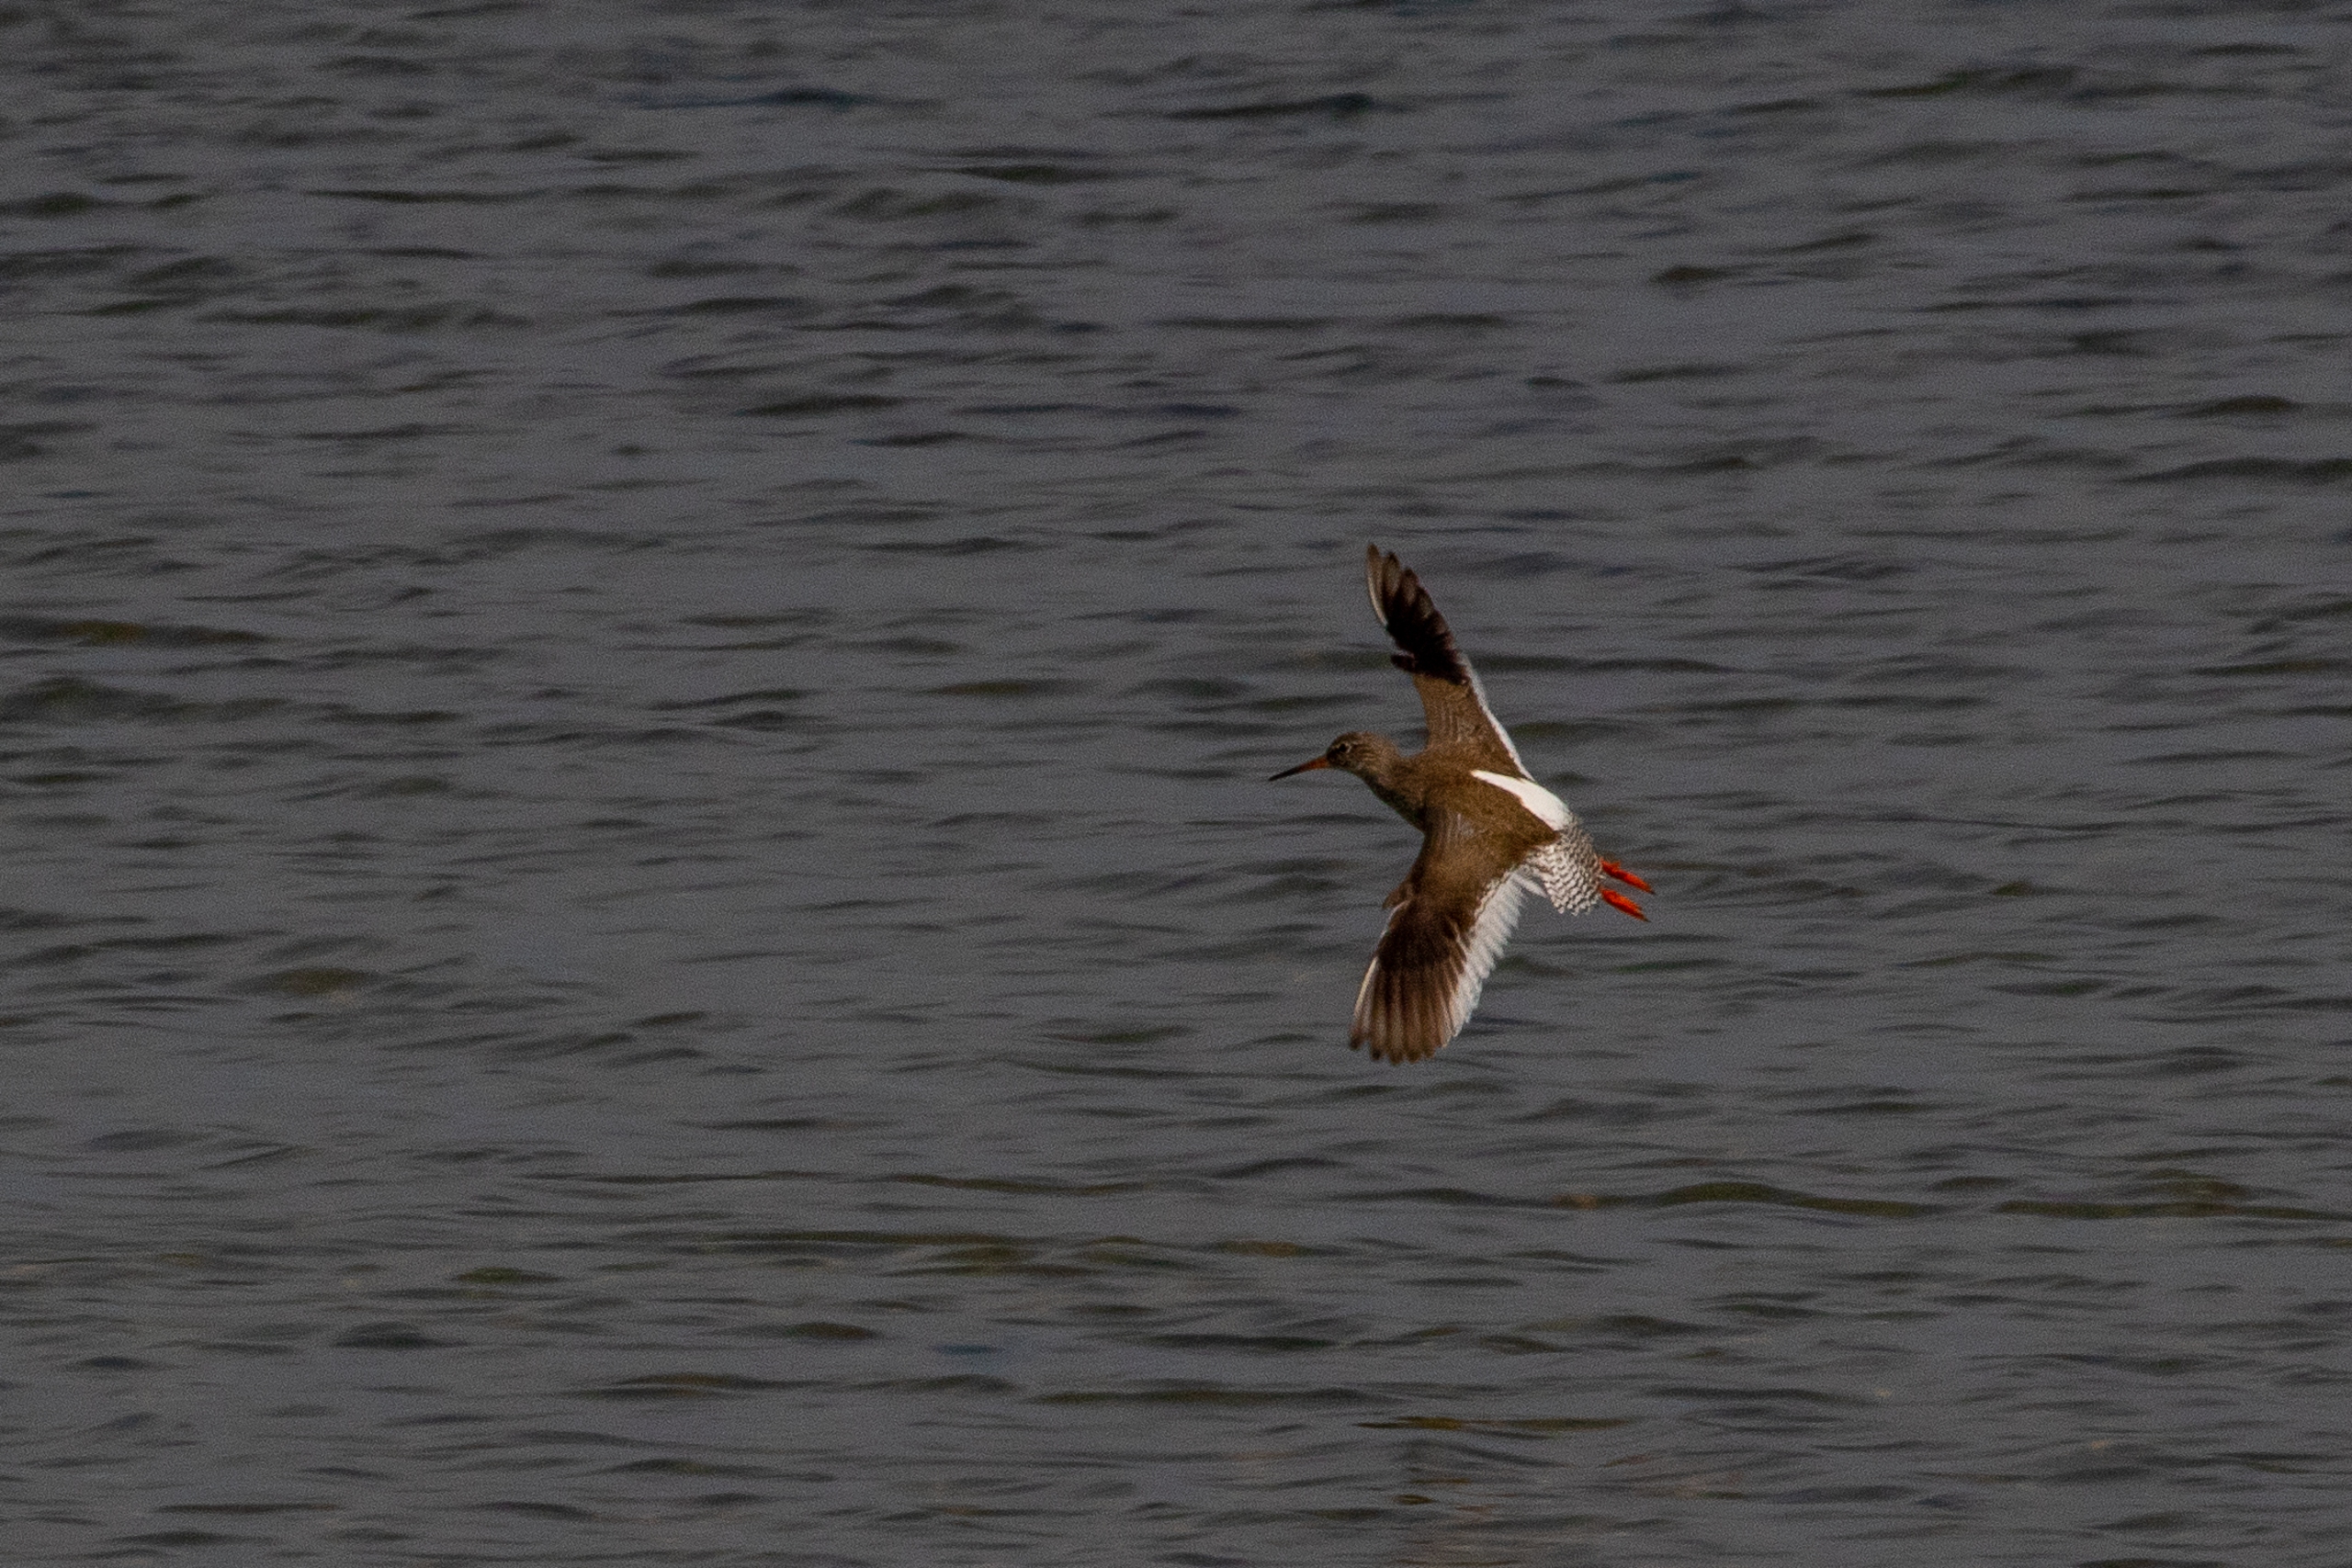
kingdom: Animalia
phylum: Chordata
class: Aves
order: Charadriiformes
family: Scolopacidae
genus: Tringa
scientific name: Tringa totanus
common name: Rødben
